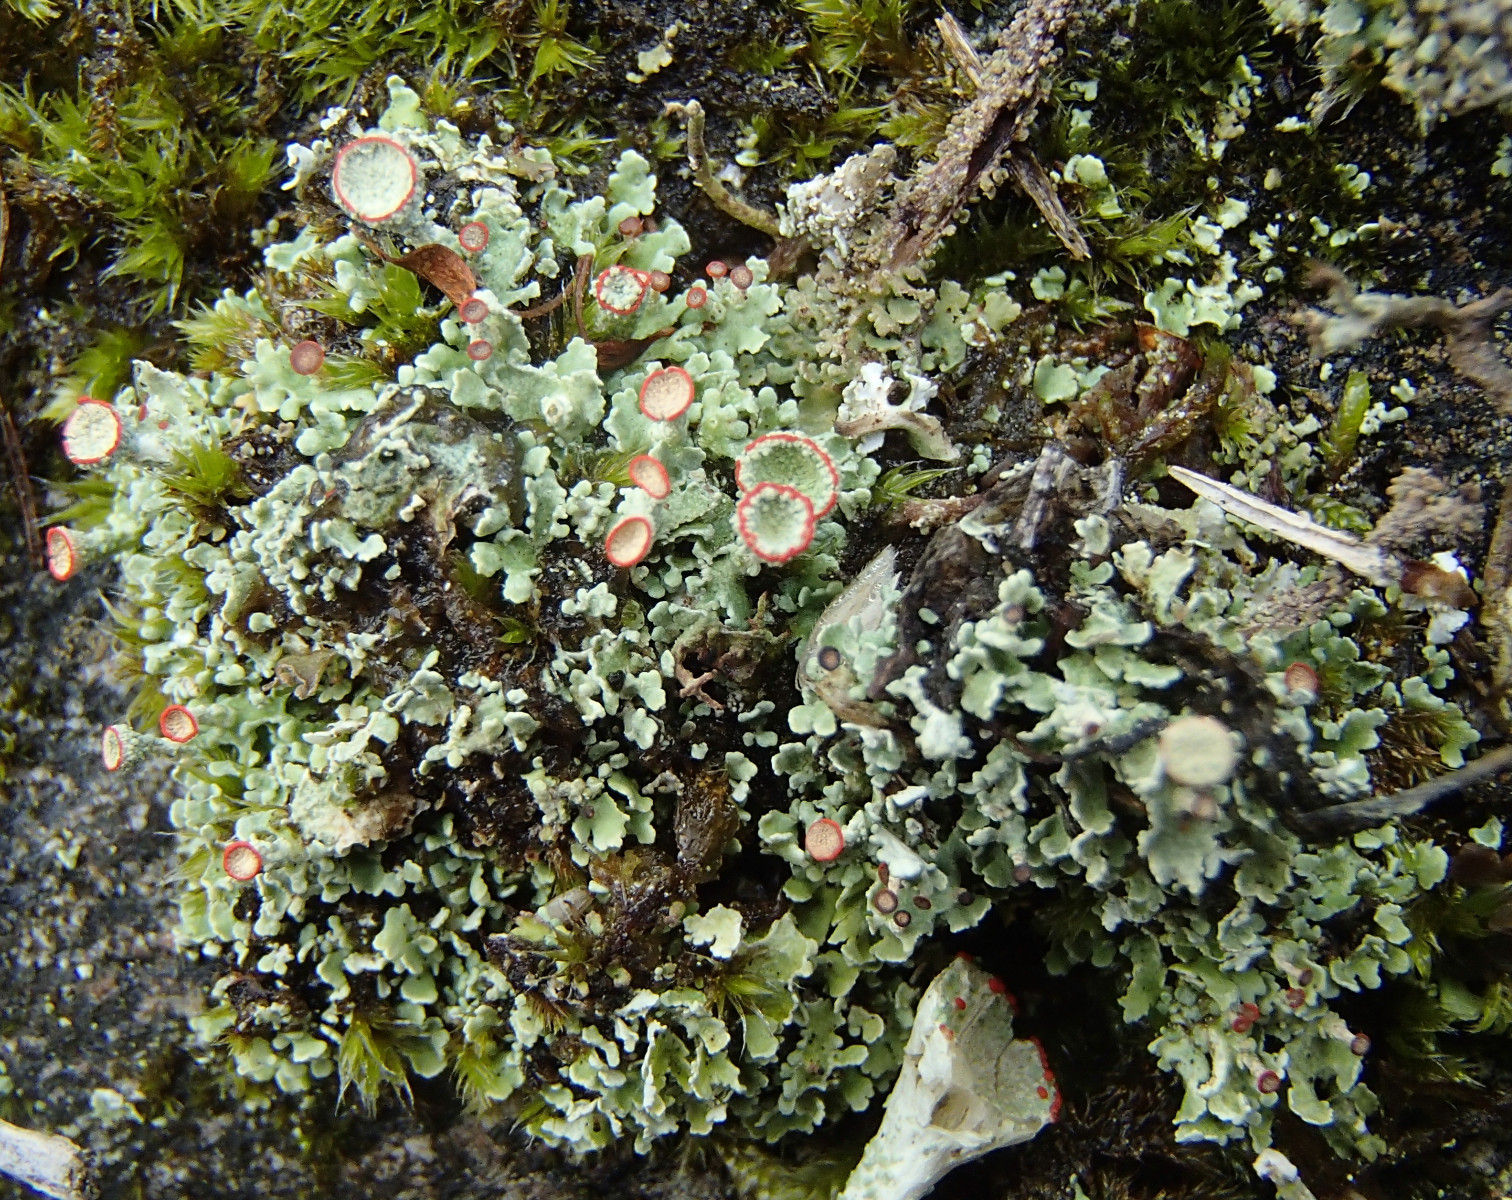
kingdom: Fungi
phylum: Ascomycota
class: Lecanoromycetes
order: Lecanorales
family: Cladoniaceae
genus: Cladonia
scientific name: Cladonia borealis
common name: nordlig bægerlav
